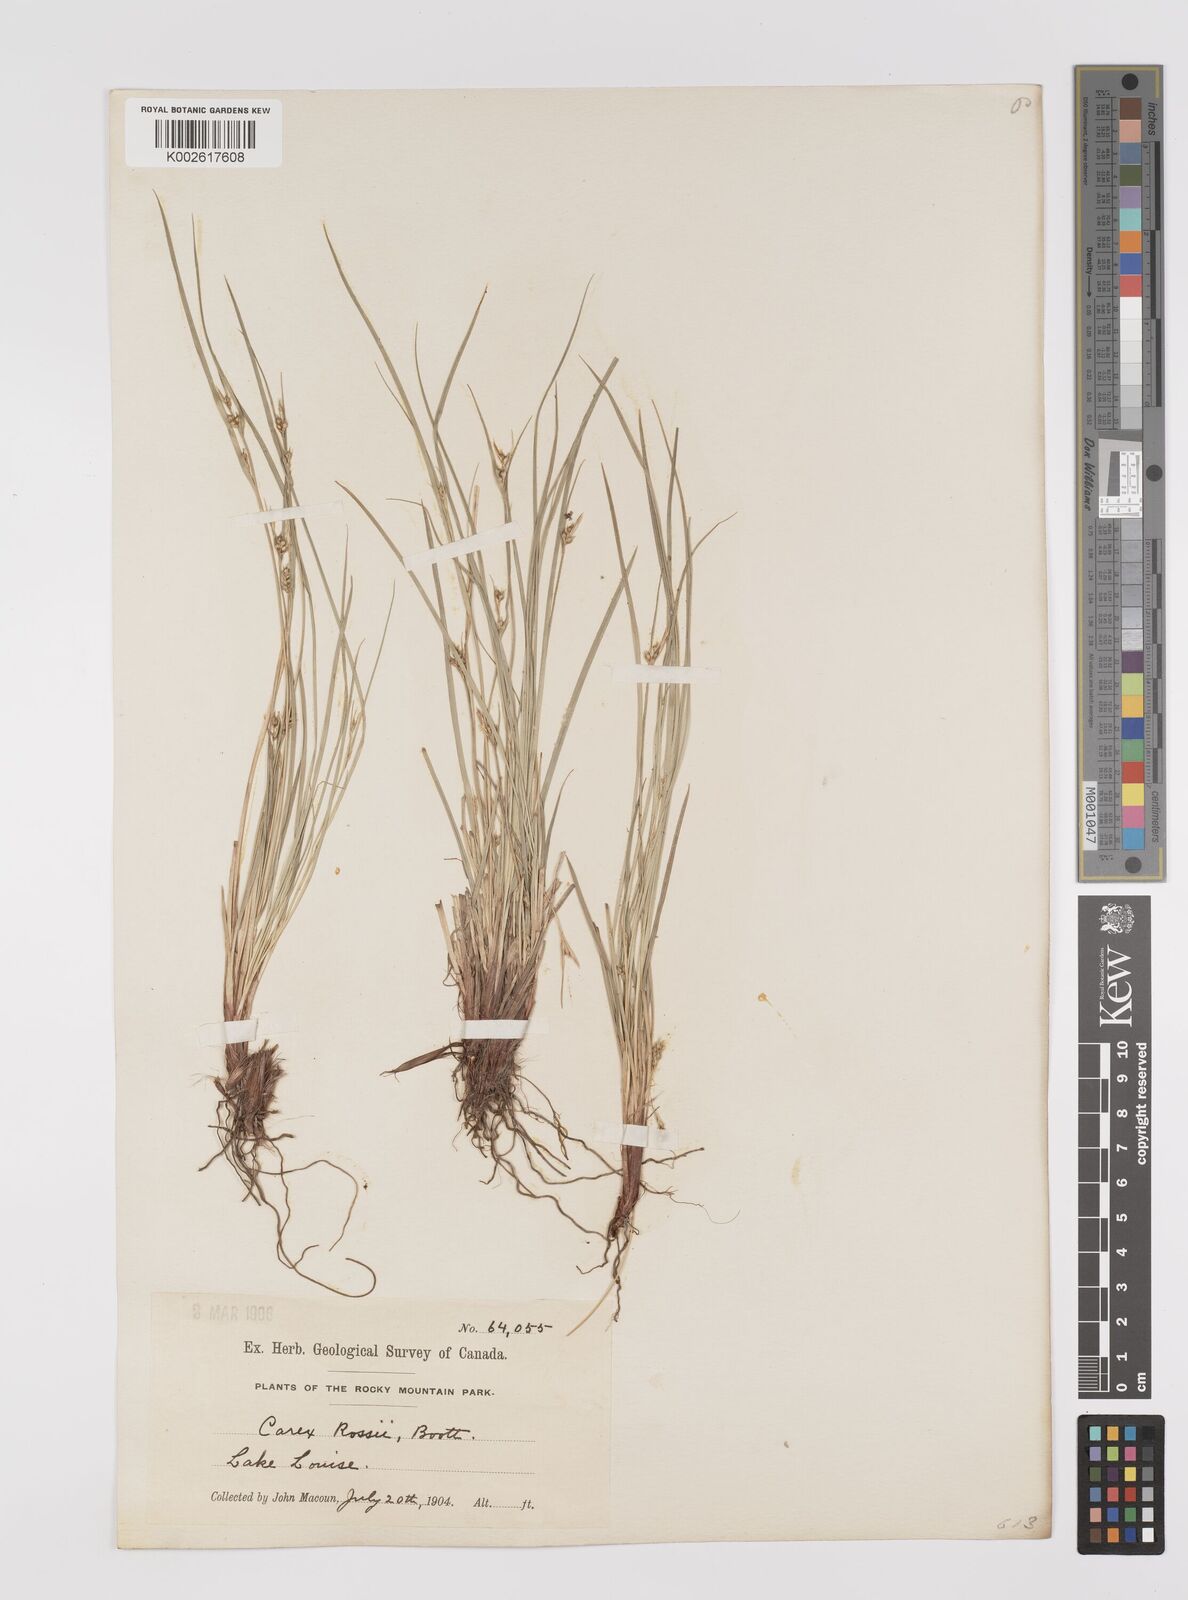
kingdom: Plantae
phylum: Tracheophyta
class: Liliopsida
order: Poales
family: Cyperaceae
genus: Carex
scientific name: Carex rossii
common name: Ross' sedge
